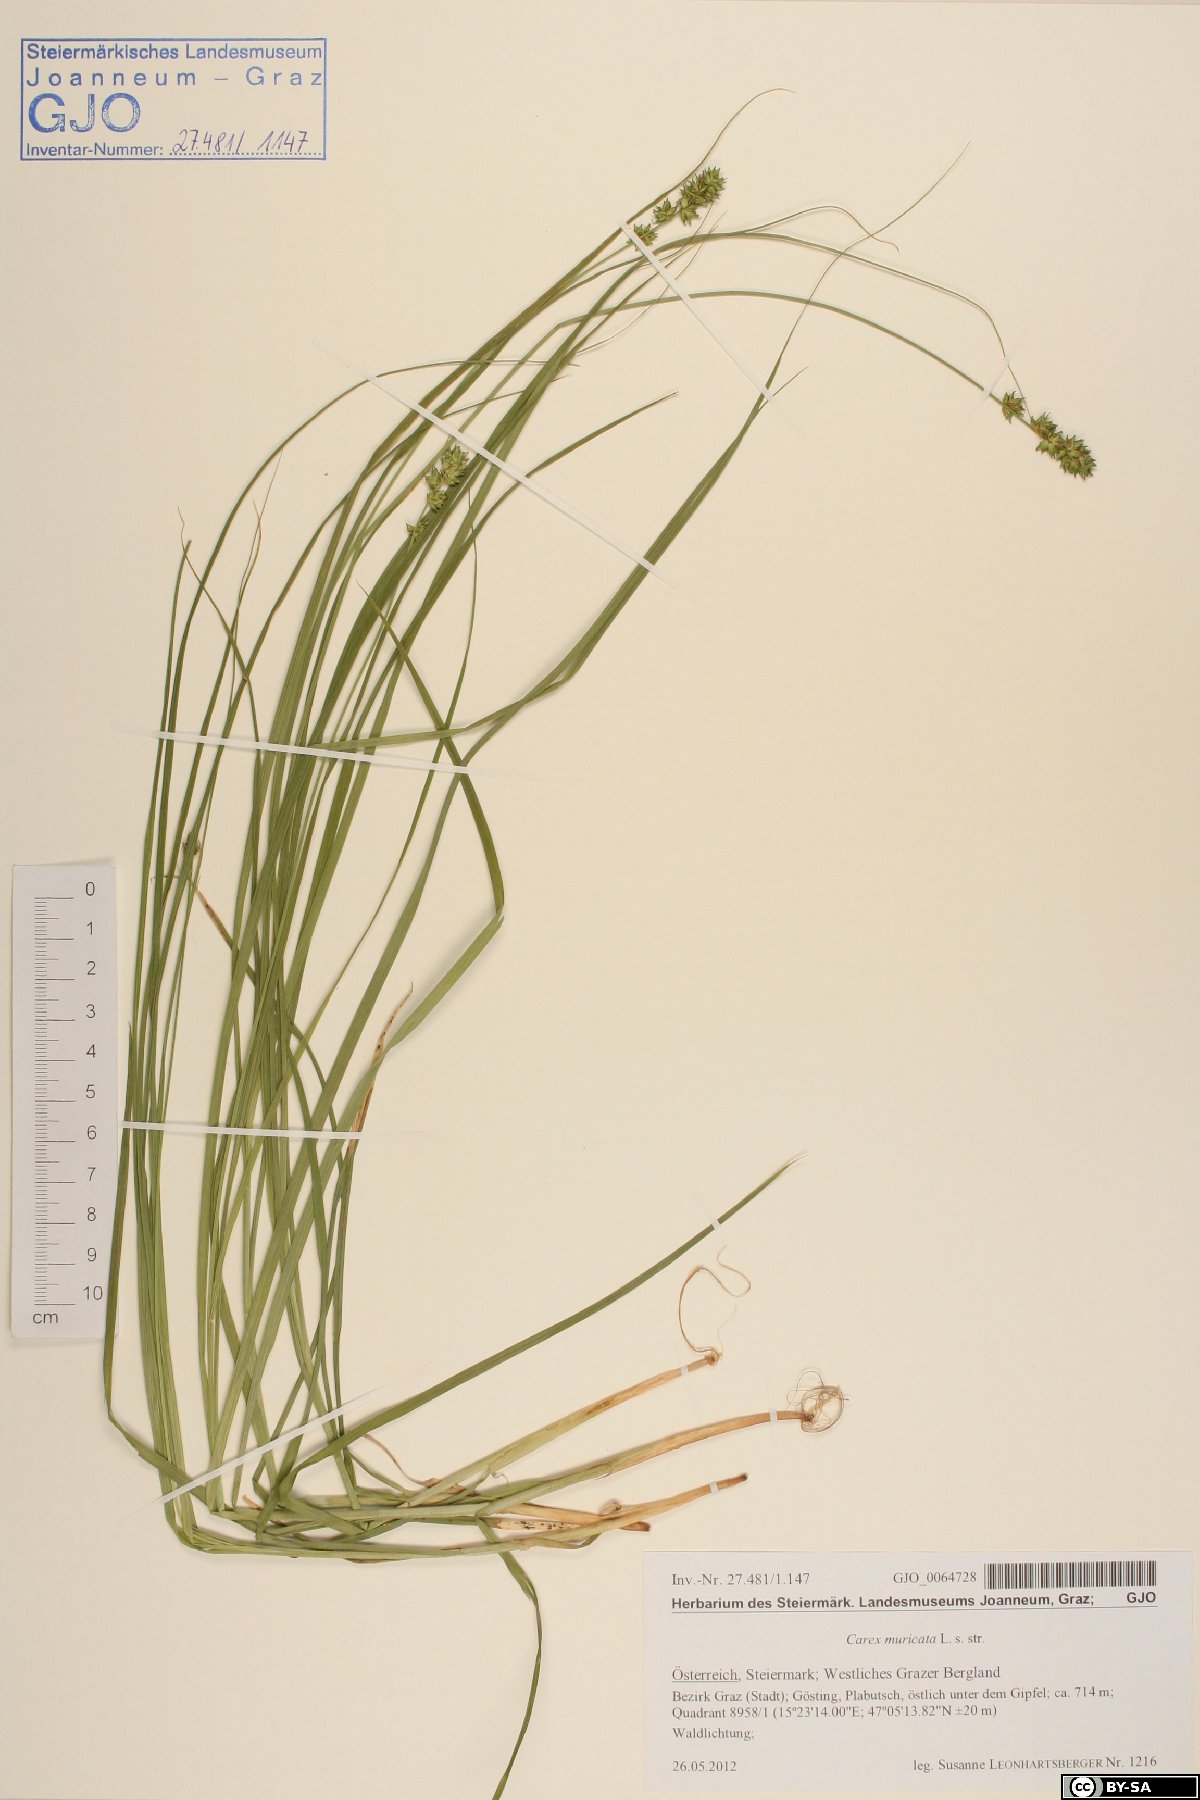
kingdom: Plantae
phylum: Tracheophyta
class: Liliopsida
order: Poales
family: Cyperaceae
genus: Carex
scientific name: Carex muricata
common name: Rough sedge
